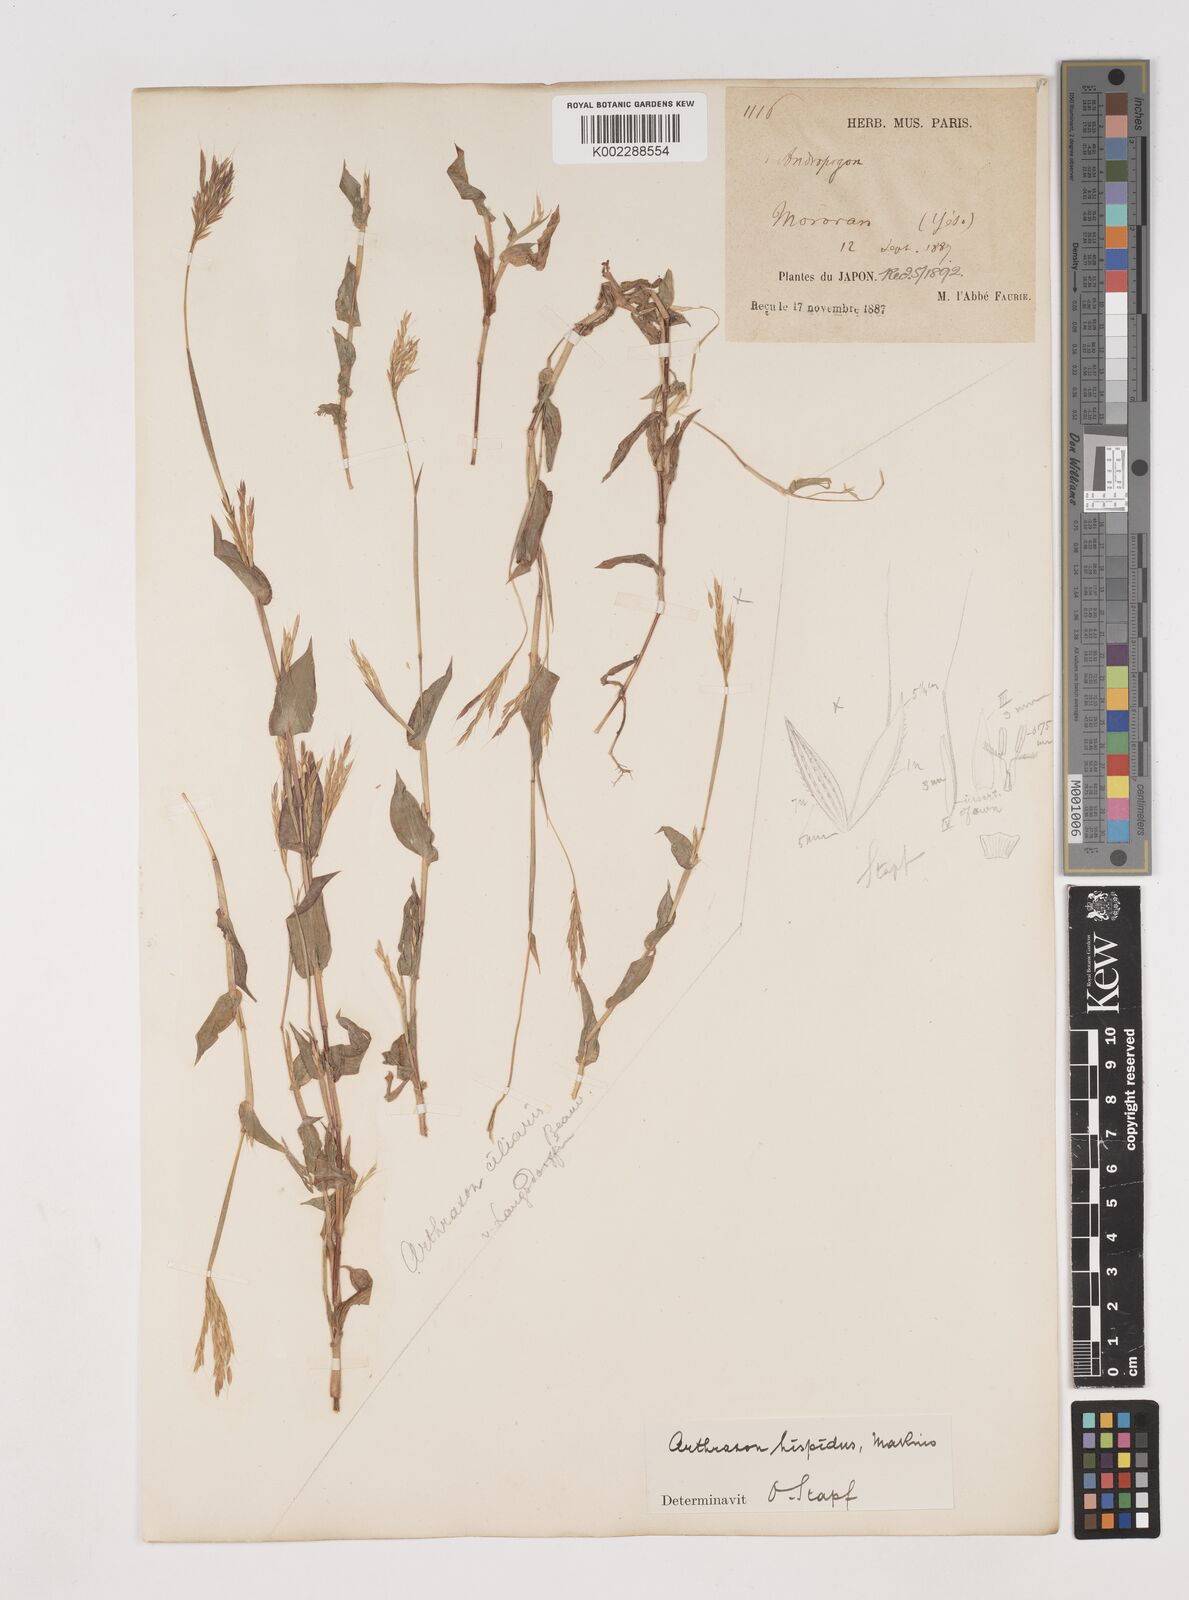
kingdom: Plantae
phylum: Tracheophyta
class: Liliopsida
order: Poales
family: Poaceae
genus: Arthraxon
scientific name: Arthraxon hispidus
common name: Small carpgrass
